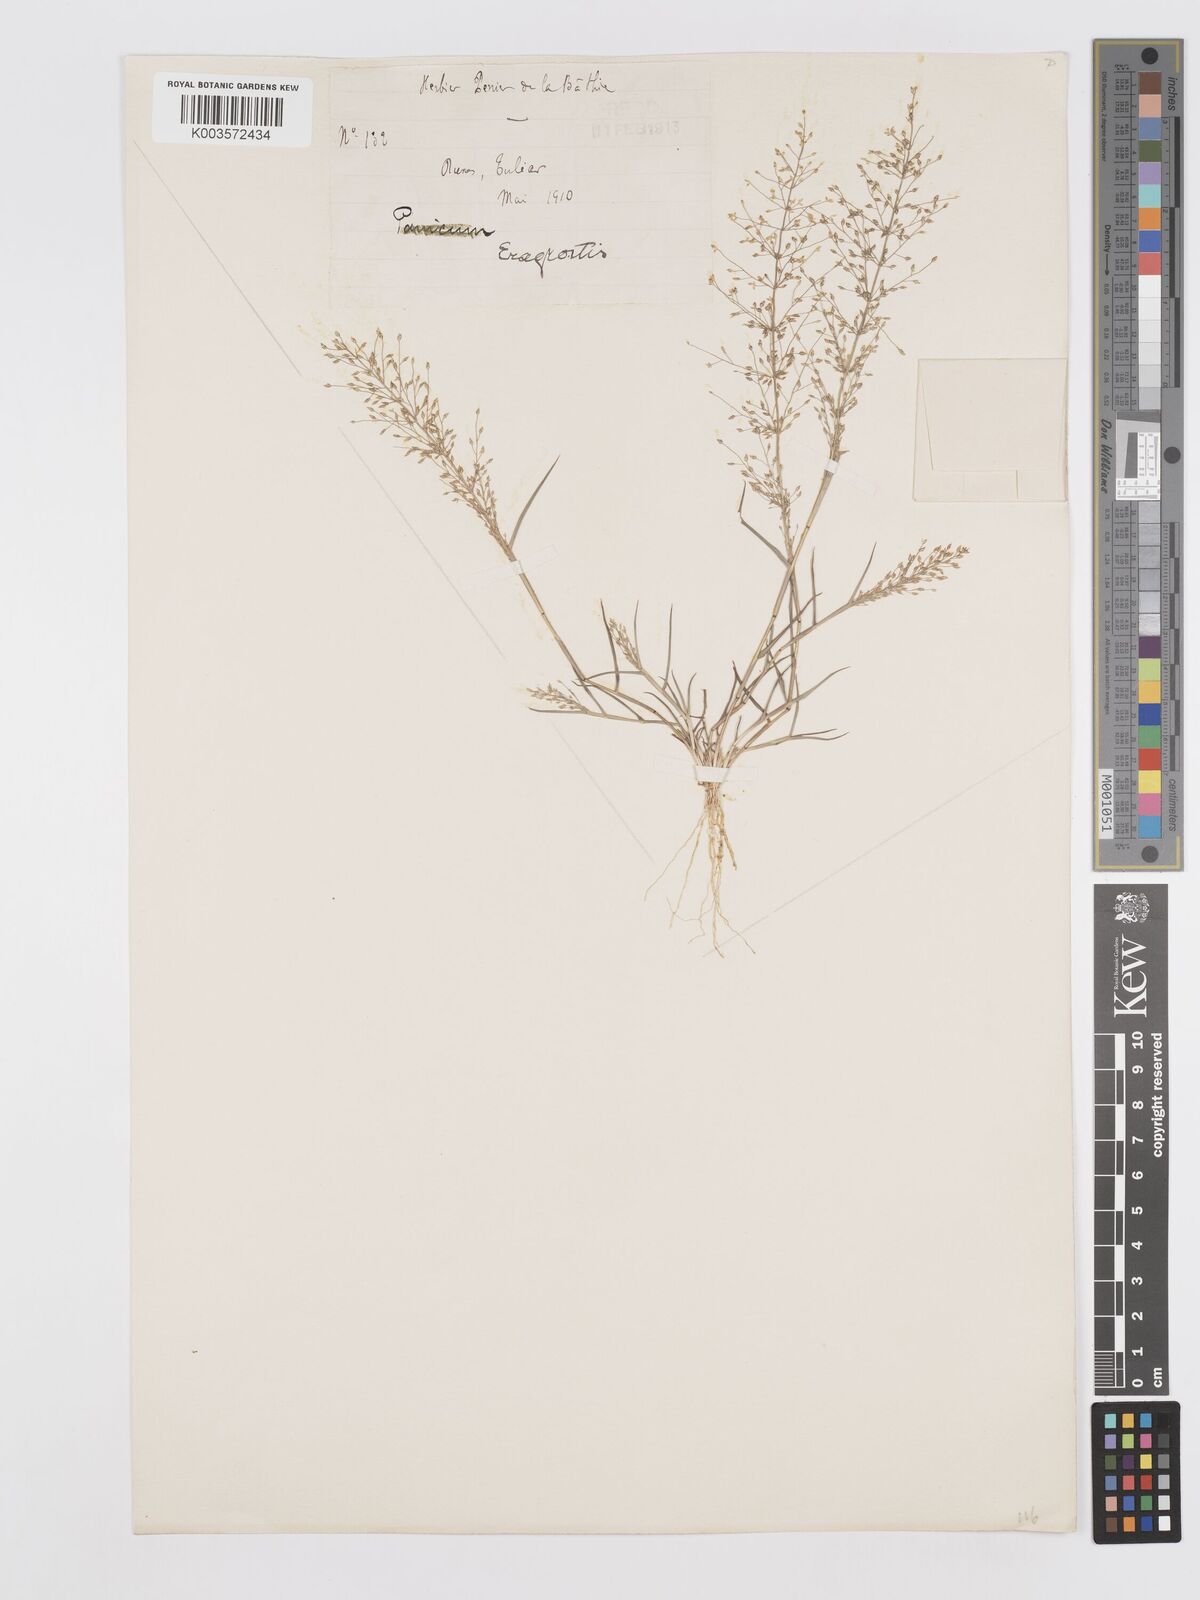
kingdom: Plantae
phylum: Tracheophyta
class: Liliopsida
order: Poales
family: Poaceae
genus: Eragrostis
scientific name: Eragrostis chabouisii
